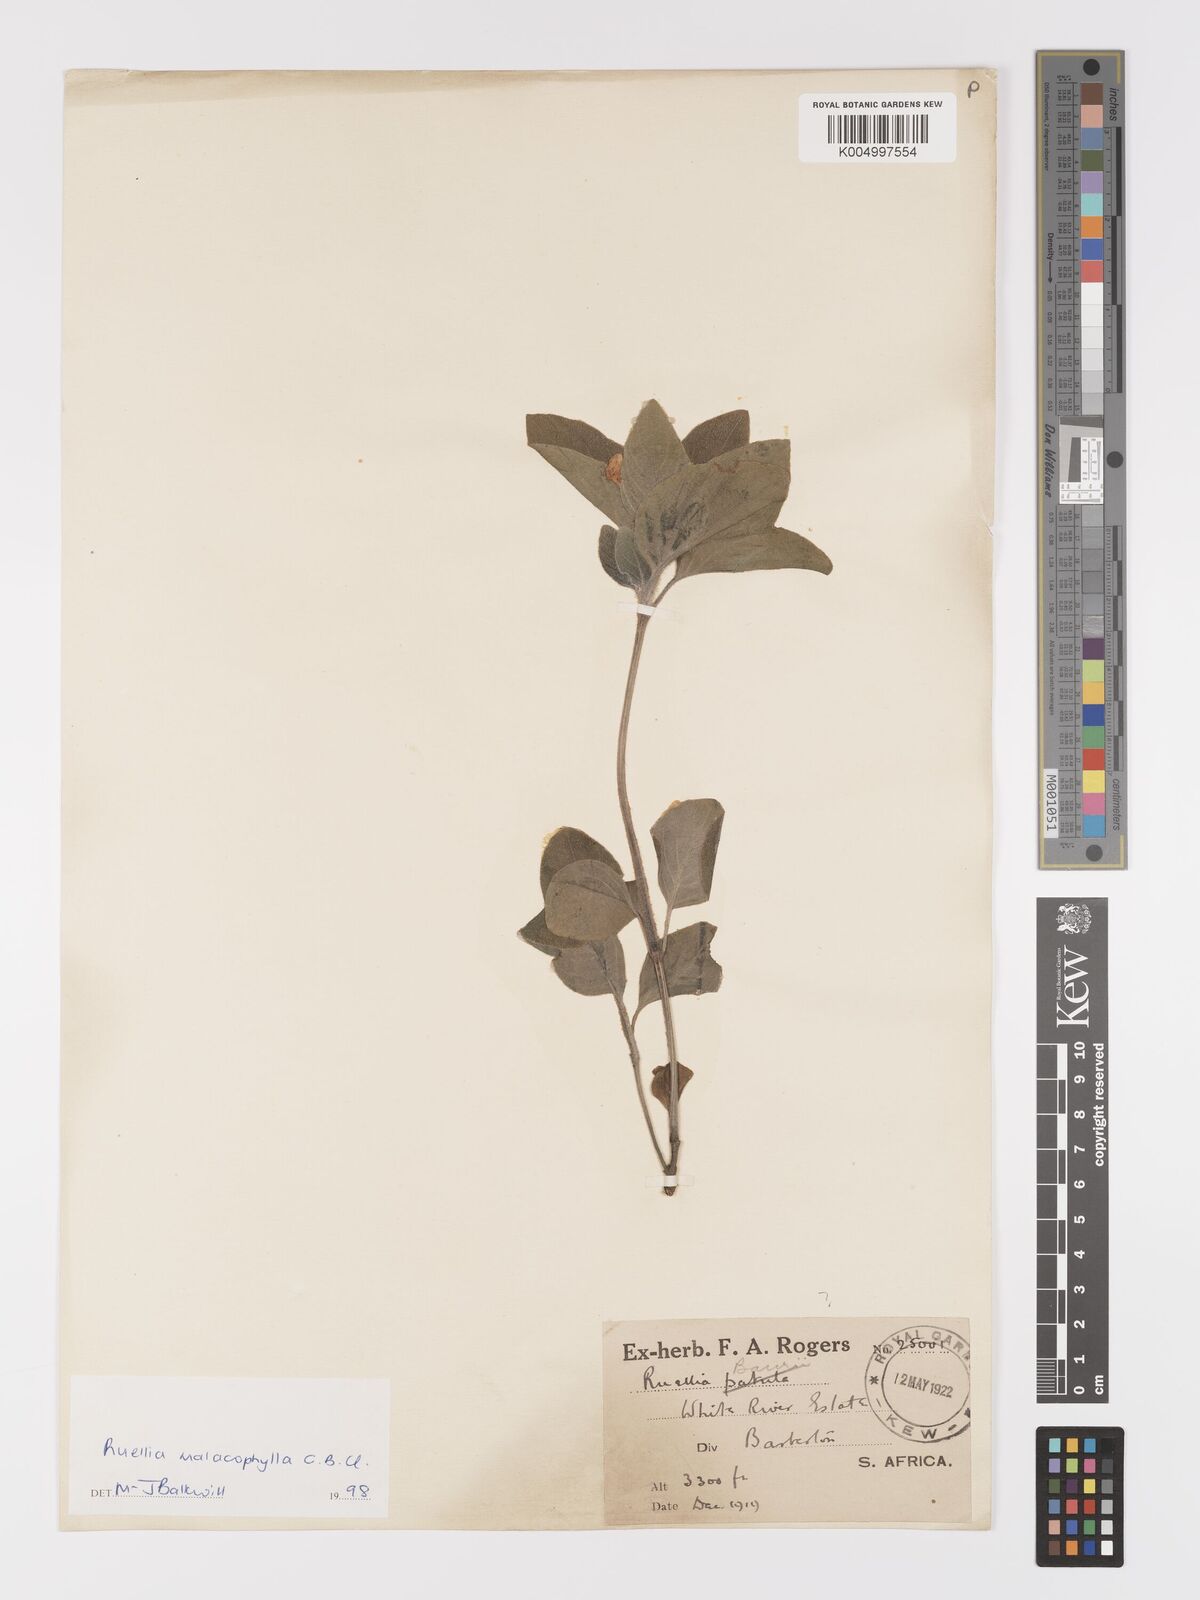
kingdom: Plantae
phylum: Tracheophyta
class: Magnoliopsida
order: Lamiales
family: Acanthaceae
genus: Crabbea
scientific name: Crabbea velutina
